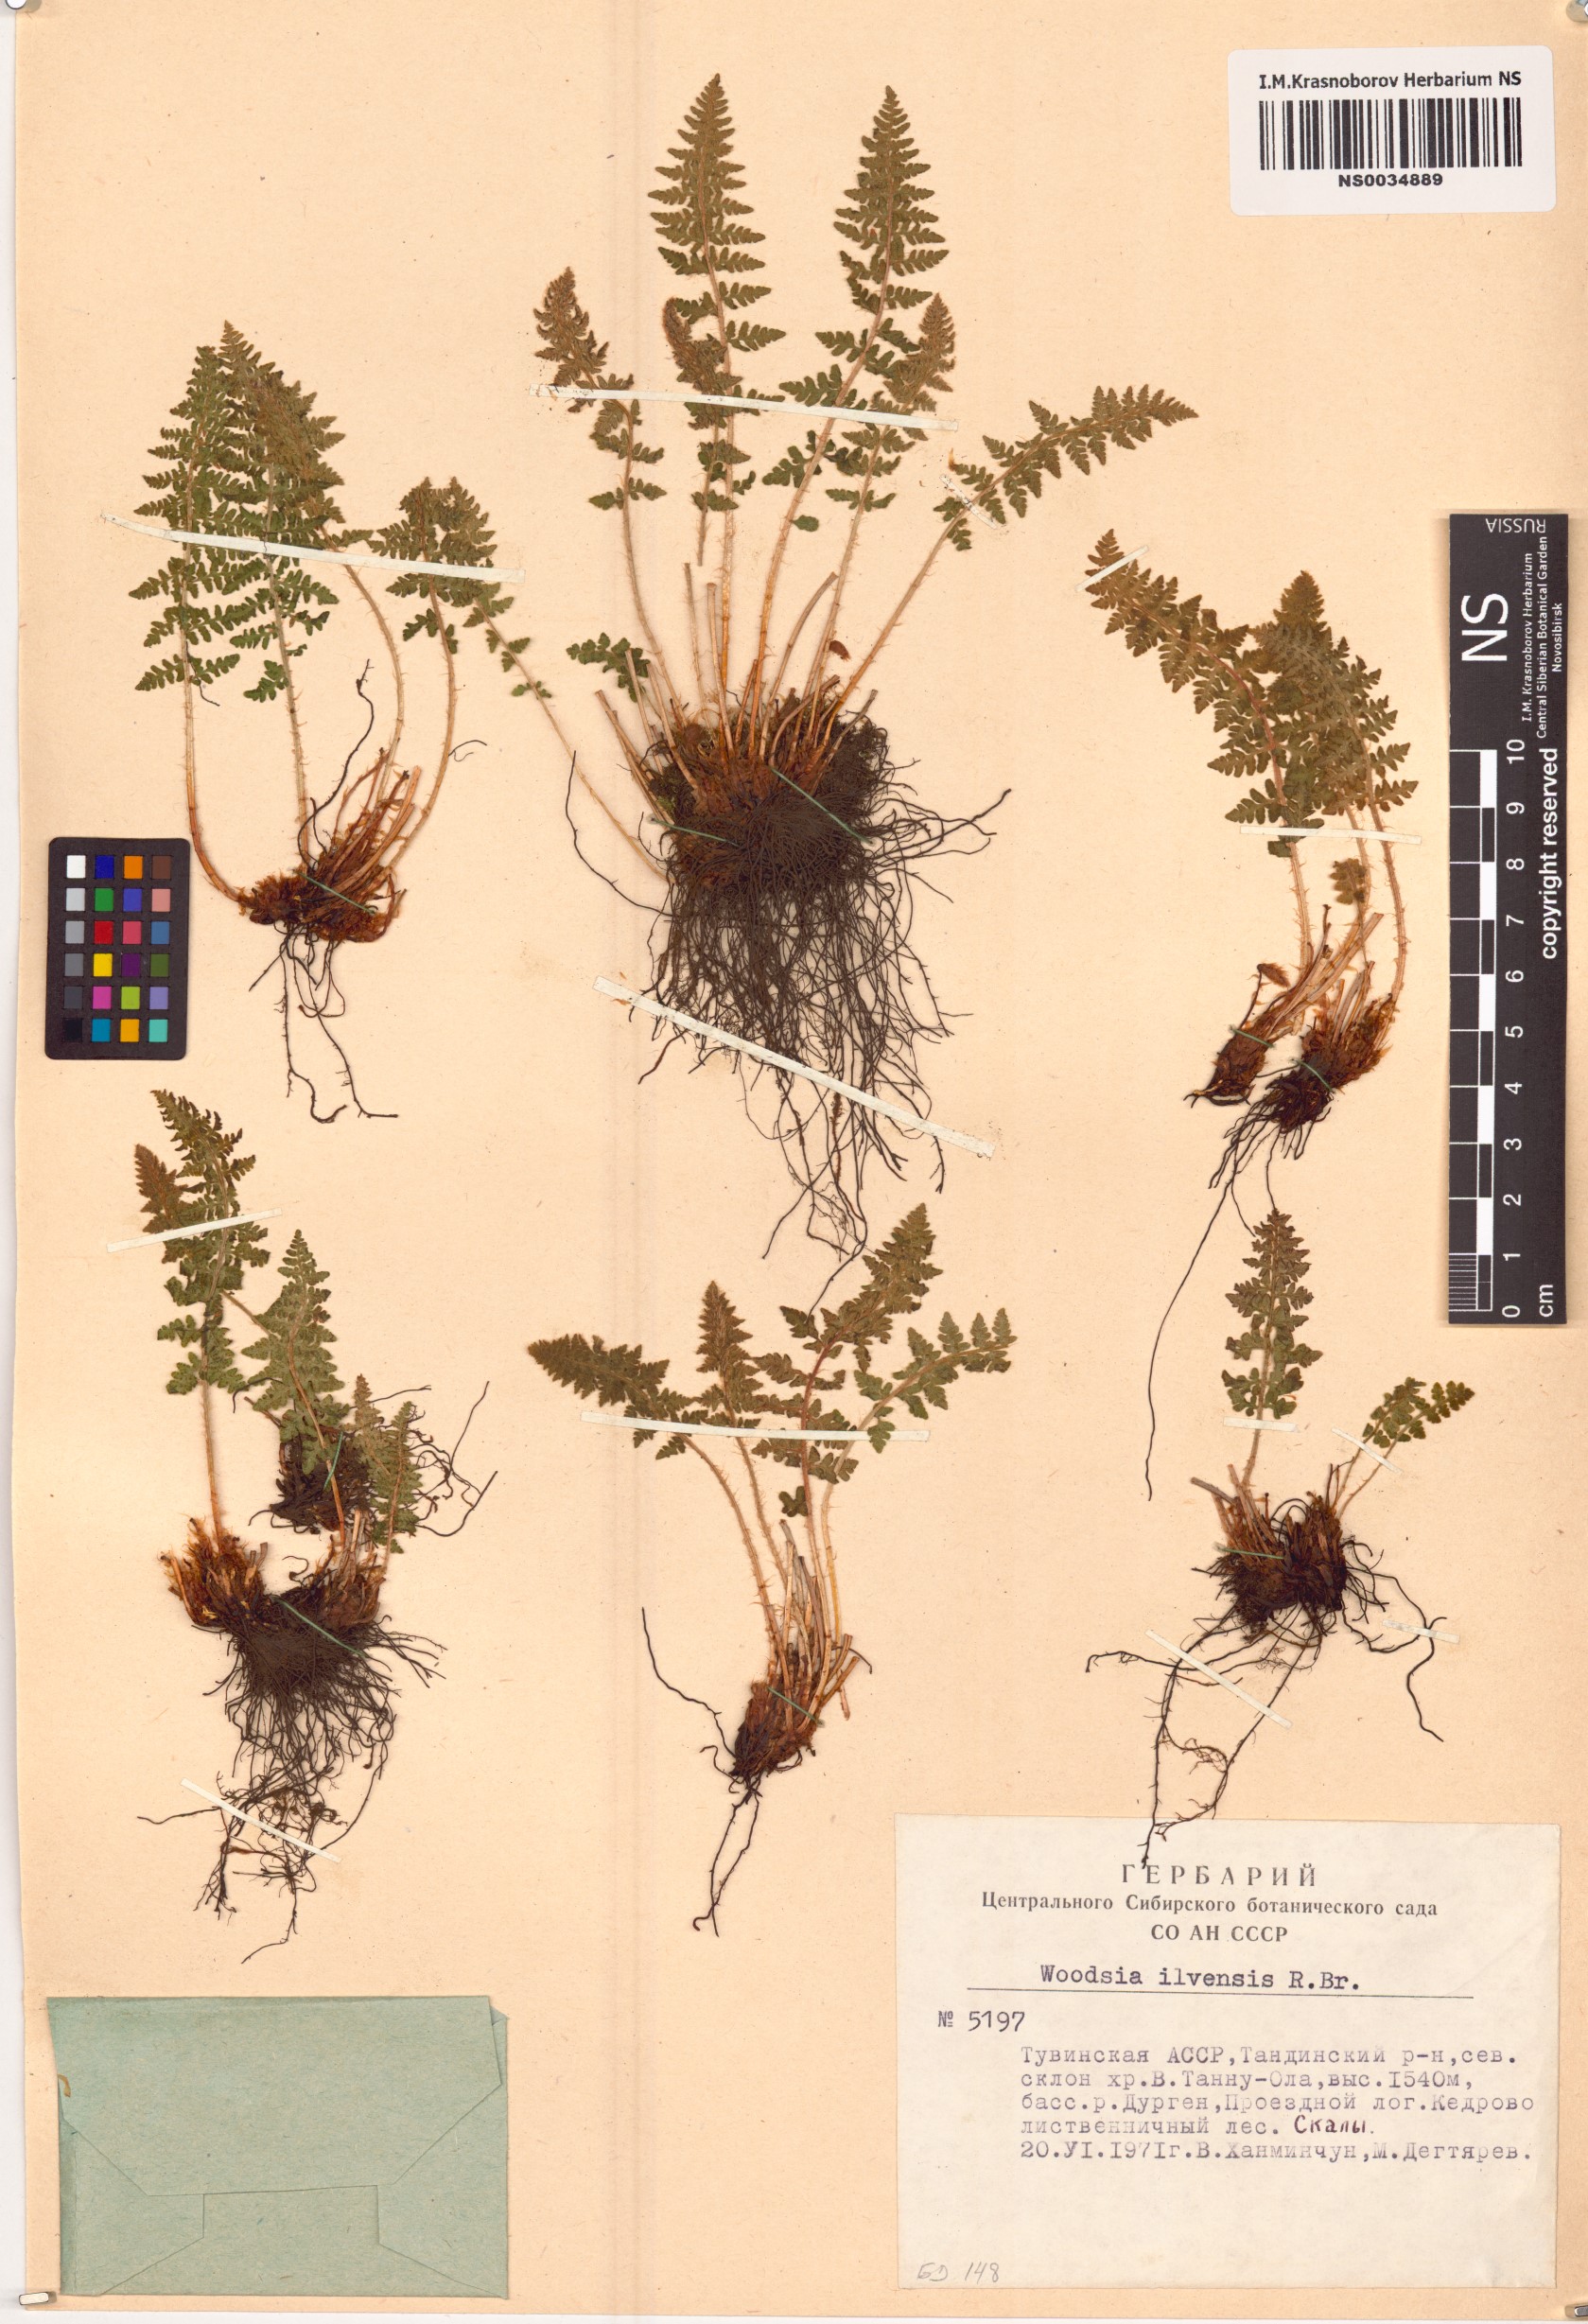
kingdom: Plantae
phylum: Tracheophyta
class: Polypodiopsida
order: Polypodiales
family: Woodsiaceae
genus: Woodsia
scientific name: Woodsia ilvensis
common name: Fragrant woodsia
